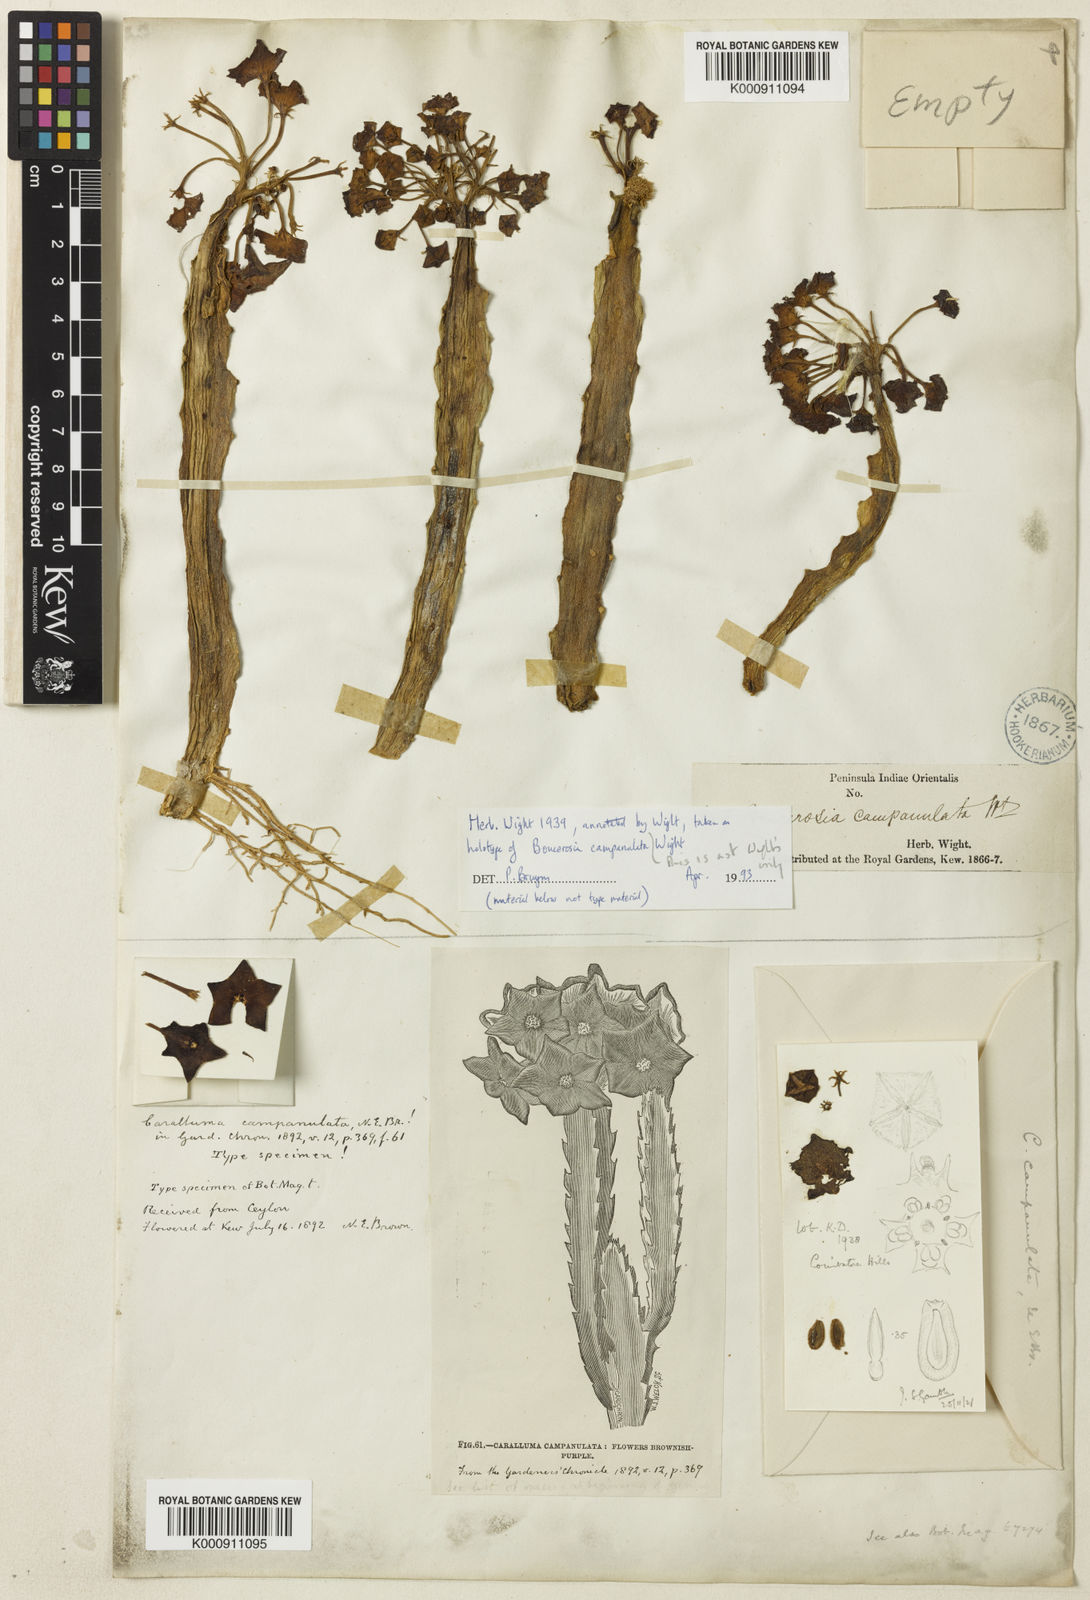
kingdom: Plantae
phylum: Tracheophyta
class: Magnoliopsida
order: Gentianales
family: Apocynaceae
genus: Ceropegia
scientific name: Ceropegia umbellata
